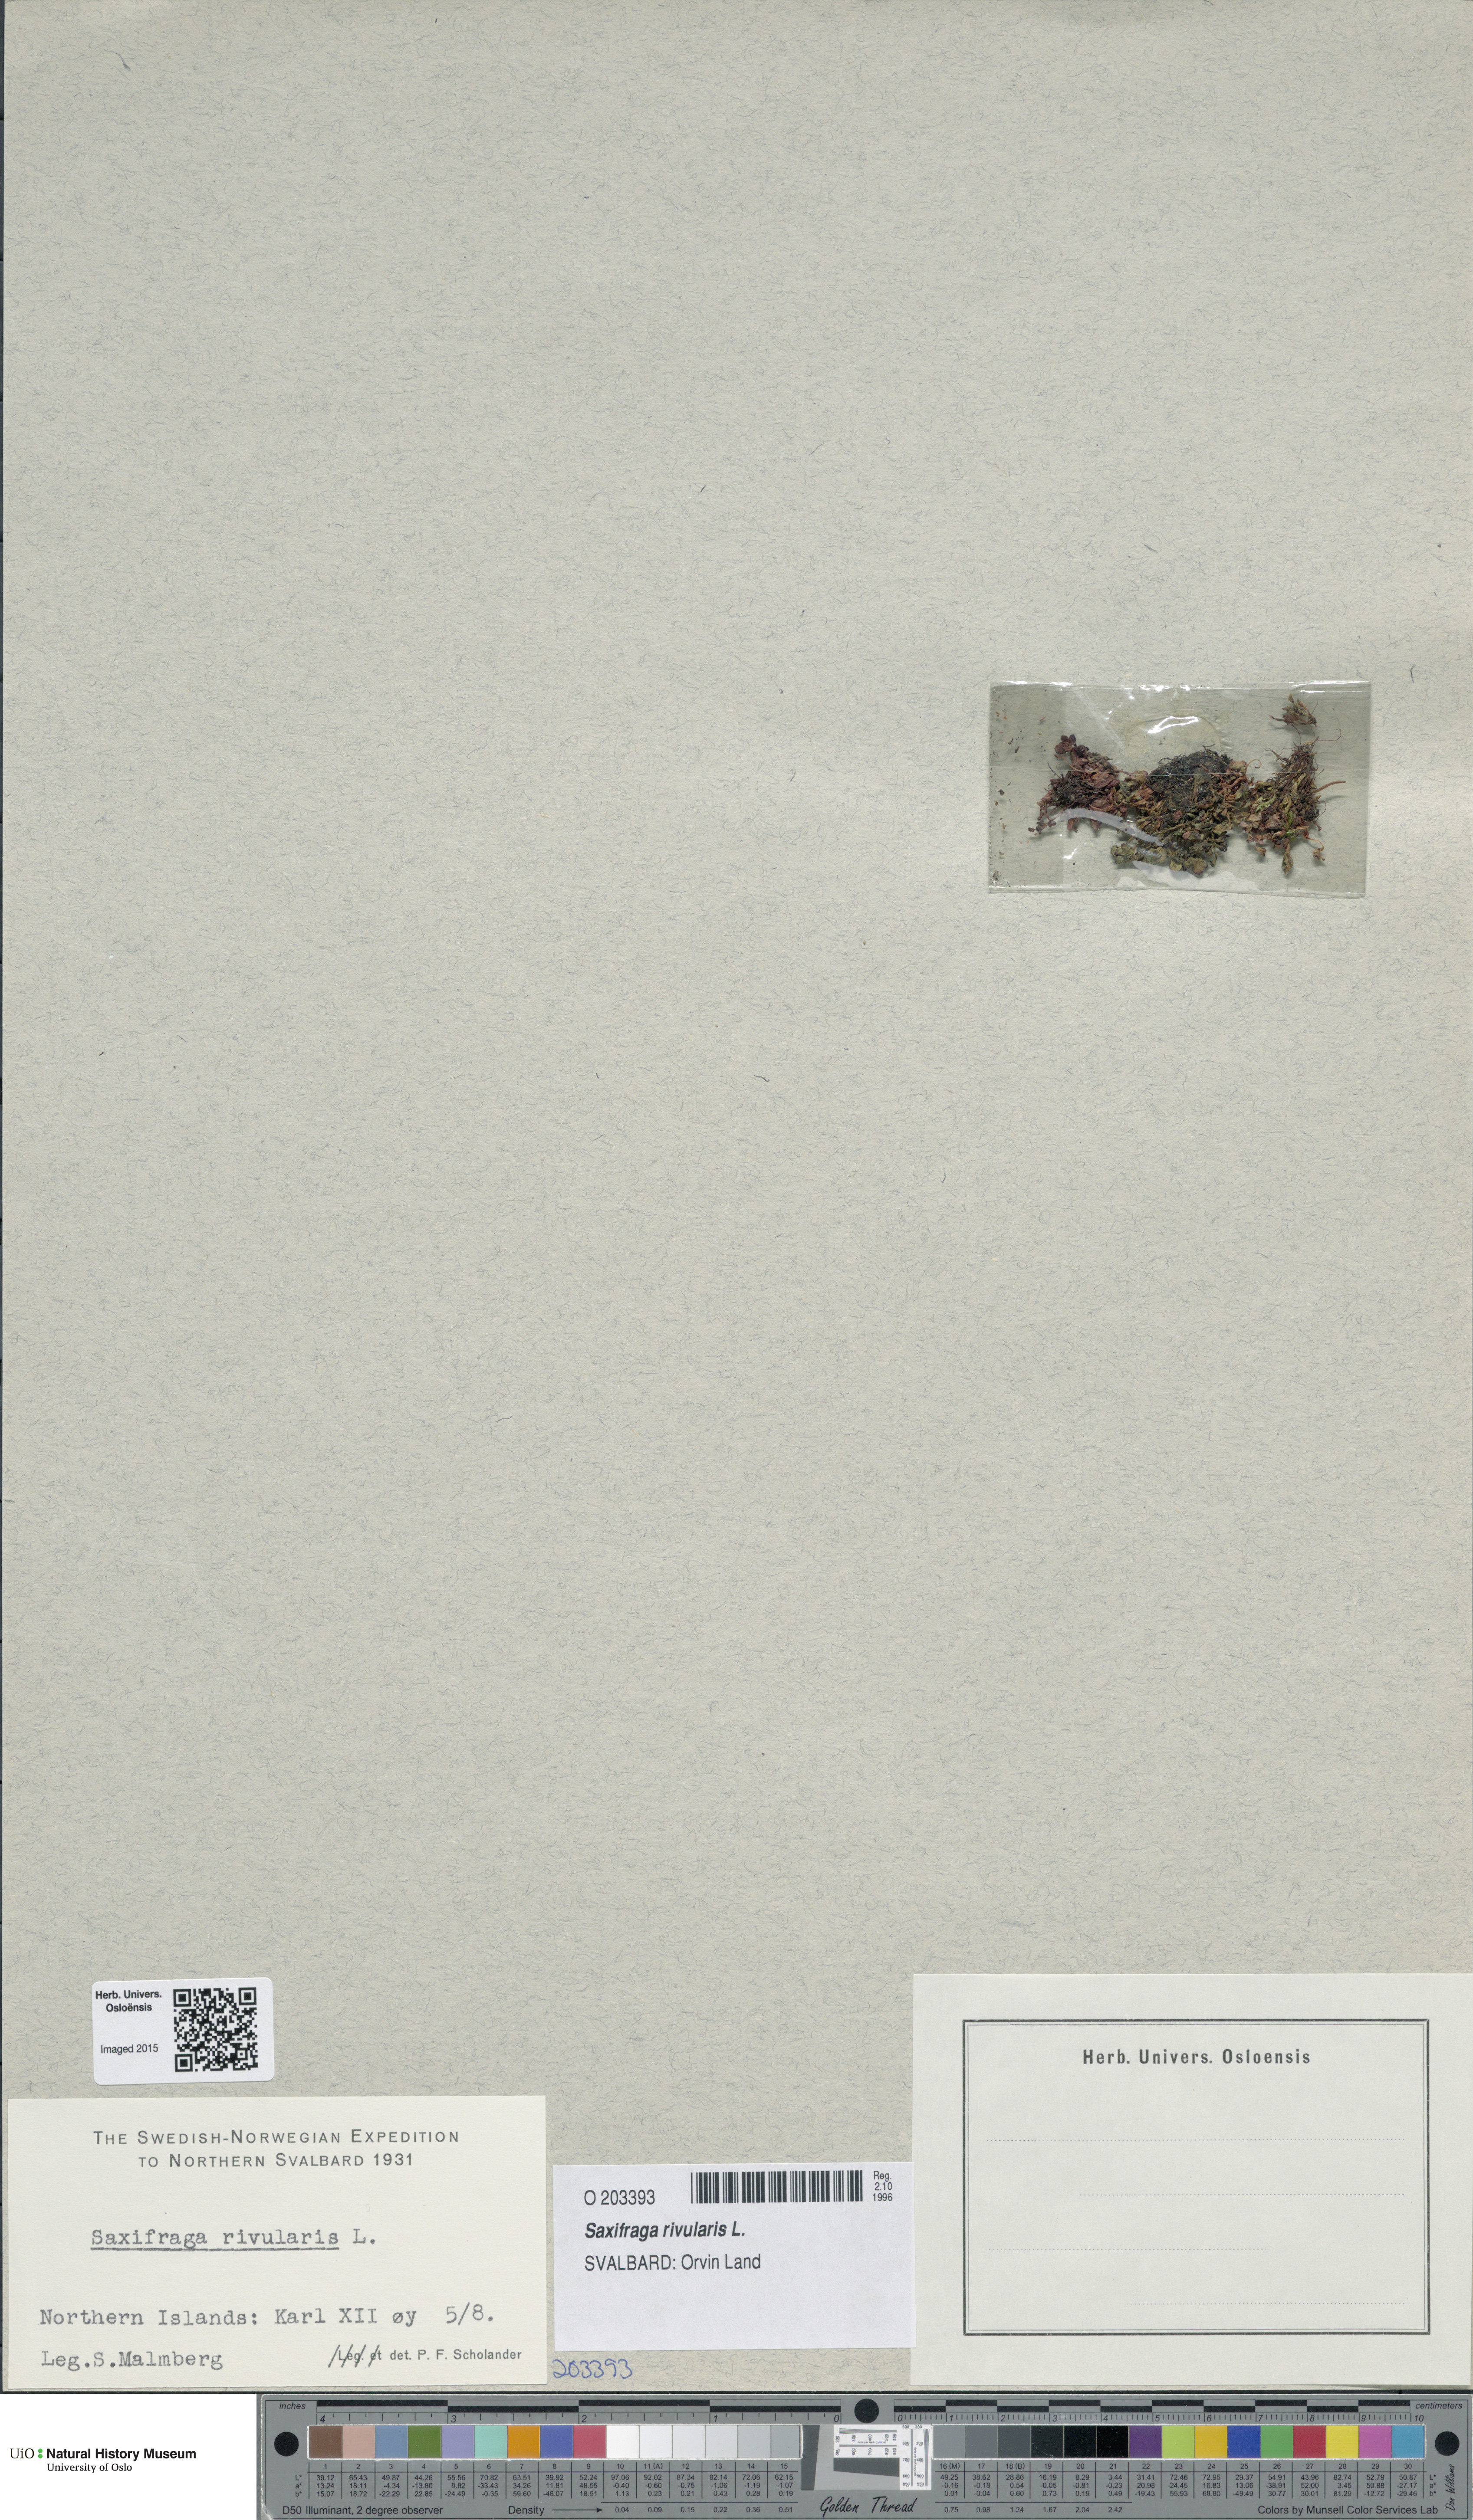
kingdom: Plantae
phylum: Tracheophyta
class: Magnoliopsida
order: Saxifragales
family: Saxifragaceae
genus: Saxifraga
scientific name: Saxifraga rivularis
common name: Highland saxifrage
